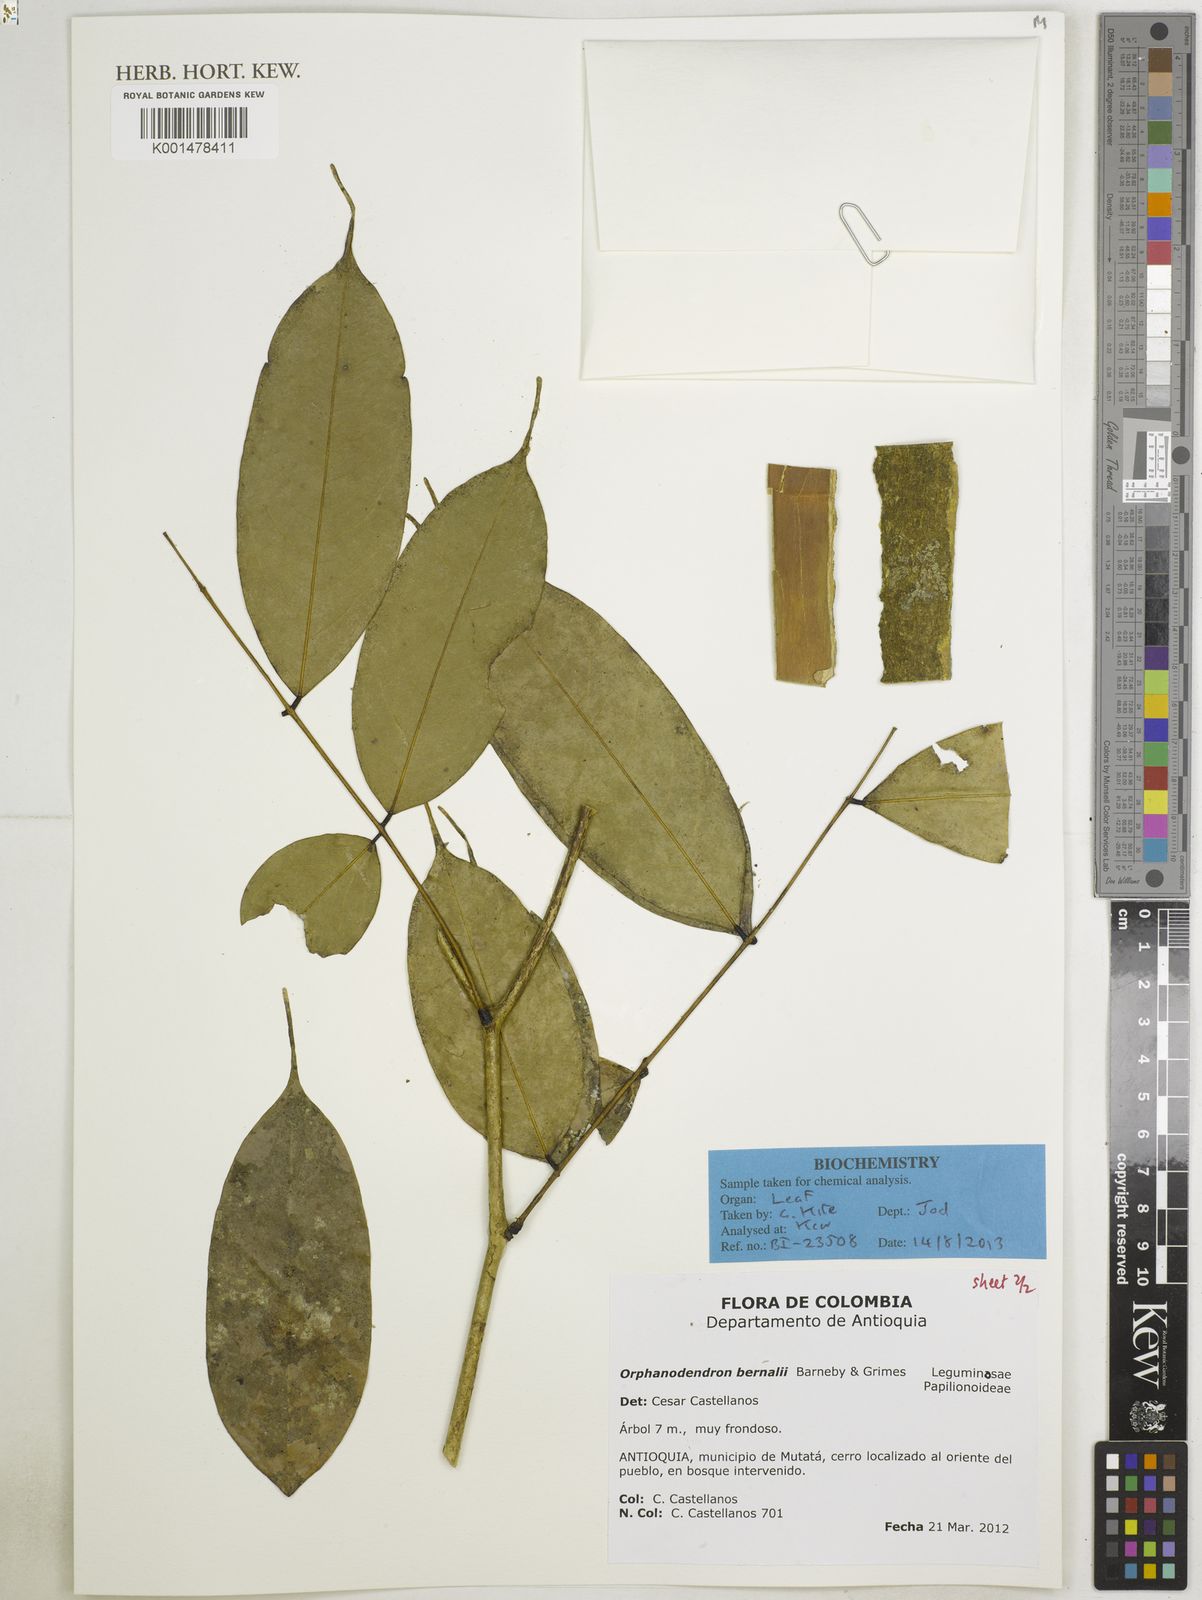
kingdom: Plantae
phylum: Tracheophyta
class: Magnoliopsida
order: Fabales
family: Fabaceae
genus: Orphanodendron
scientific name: Orphanodendron bernalii
